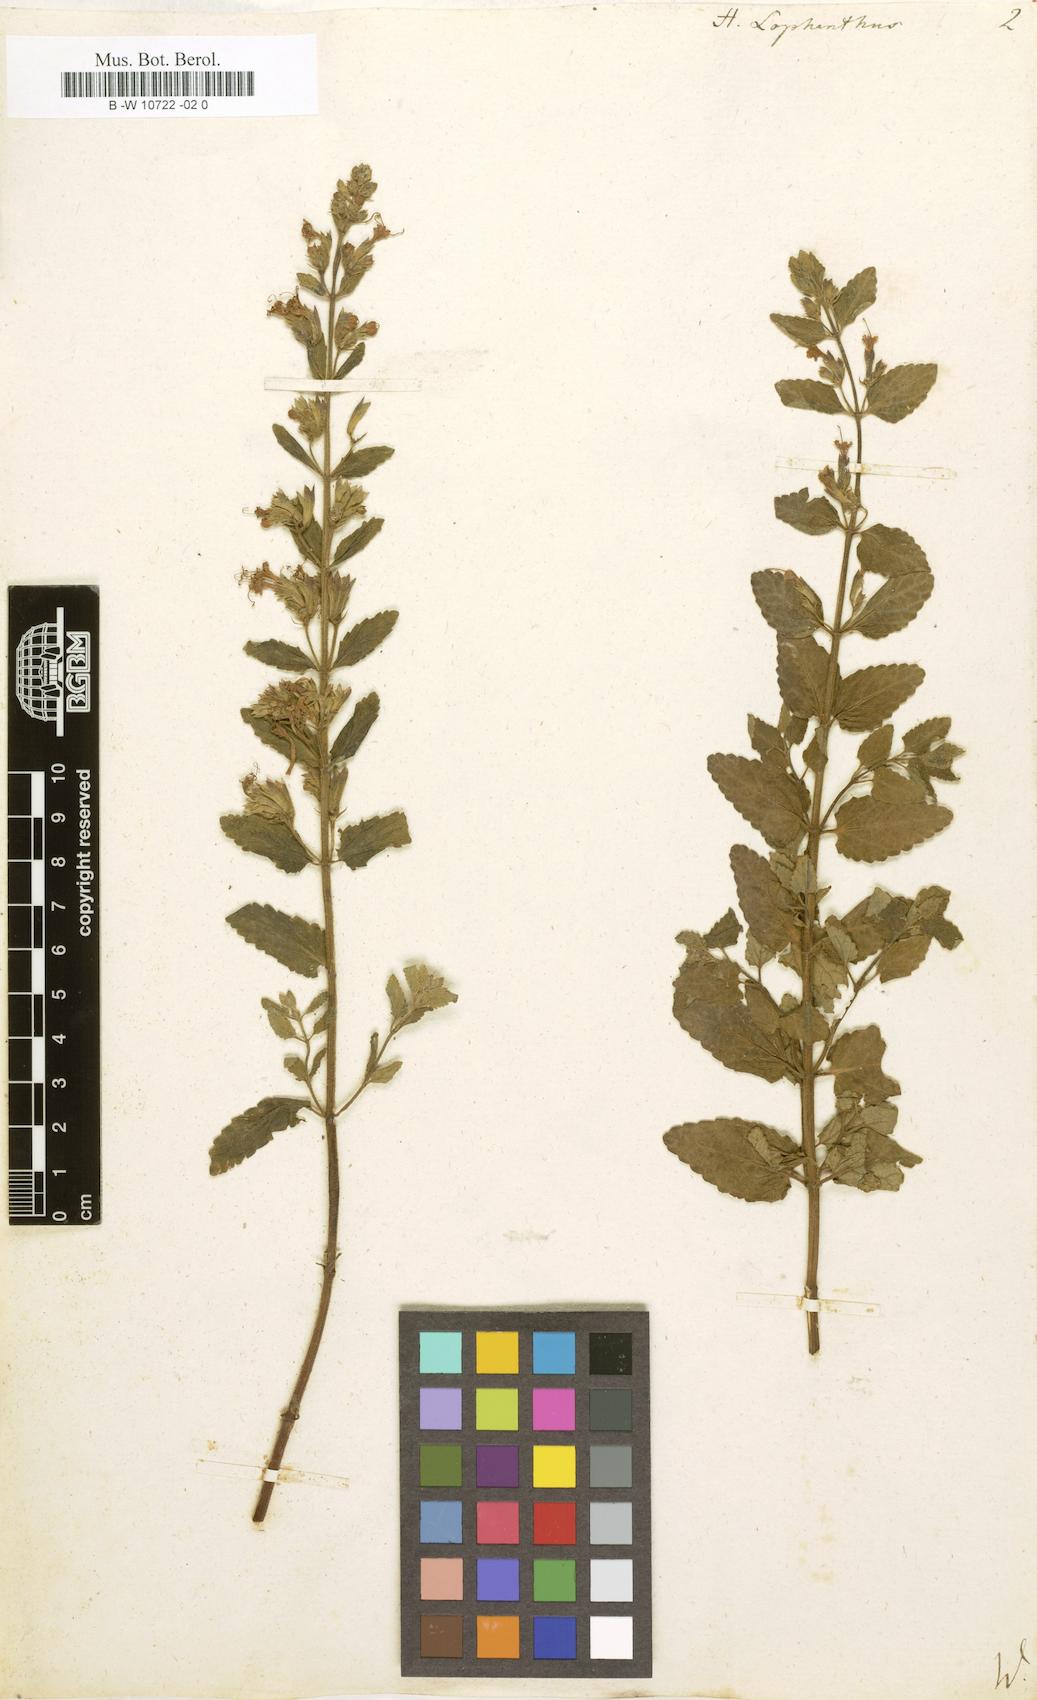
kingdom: Plantae
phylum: Tracheophyta
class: Magnoliopsida
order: Lamiales
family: Lamiaceae
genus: Nepeta
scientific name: Nepeta lophanthus
